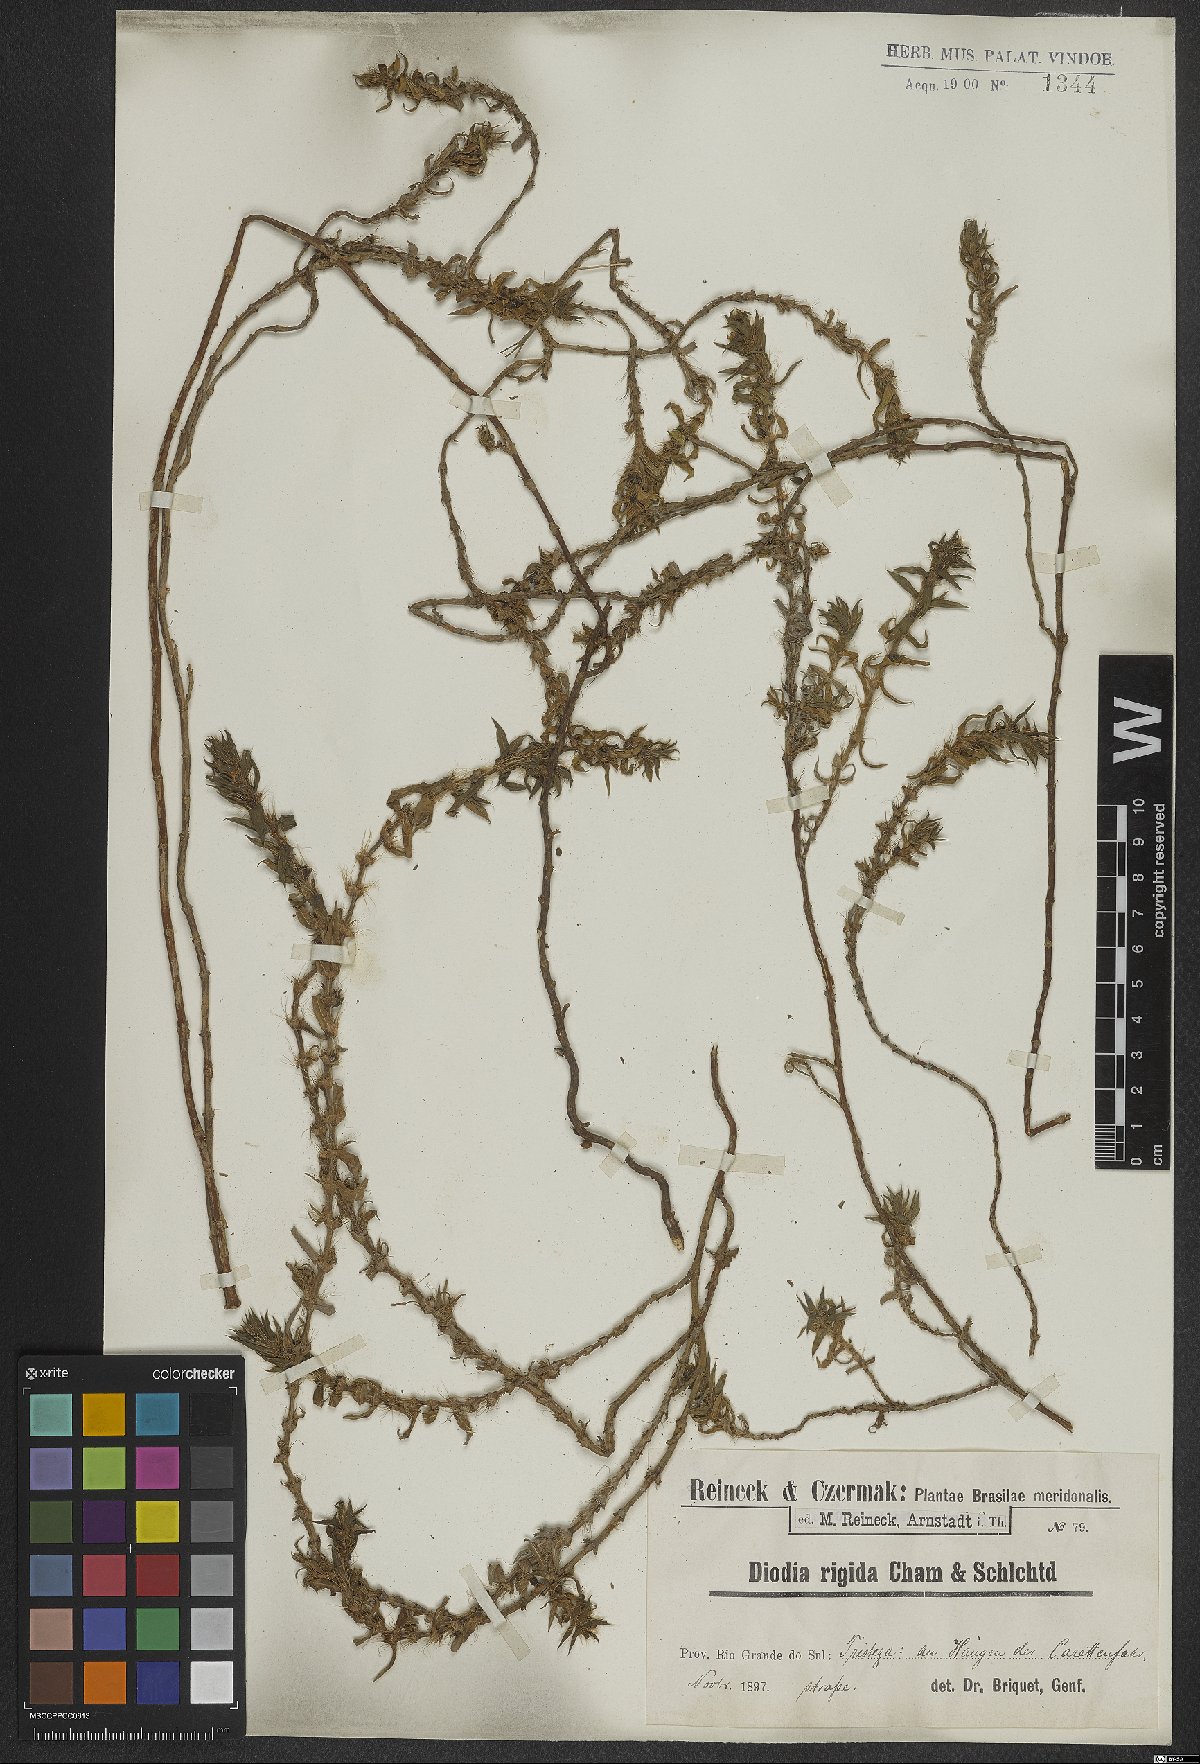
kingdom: Plantae
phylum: Tracheophyta
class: Magnoliopsida
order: Gentianales
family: Rubiaceae
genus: Hexasepalum
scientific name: Hexasepalum apiculatum
